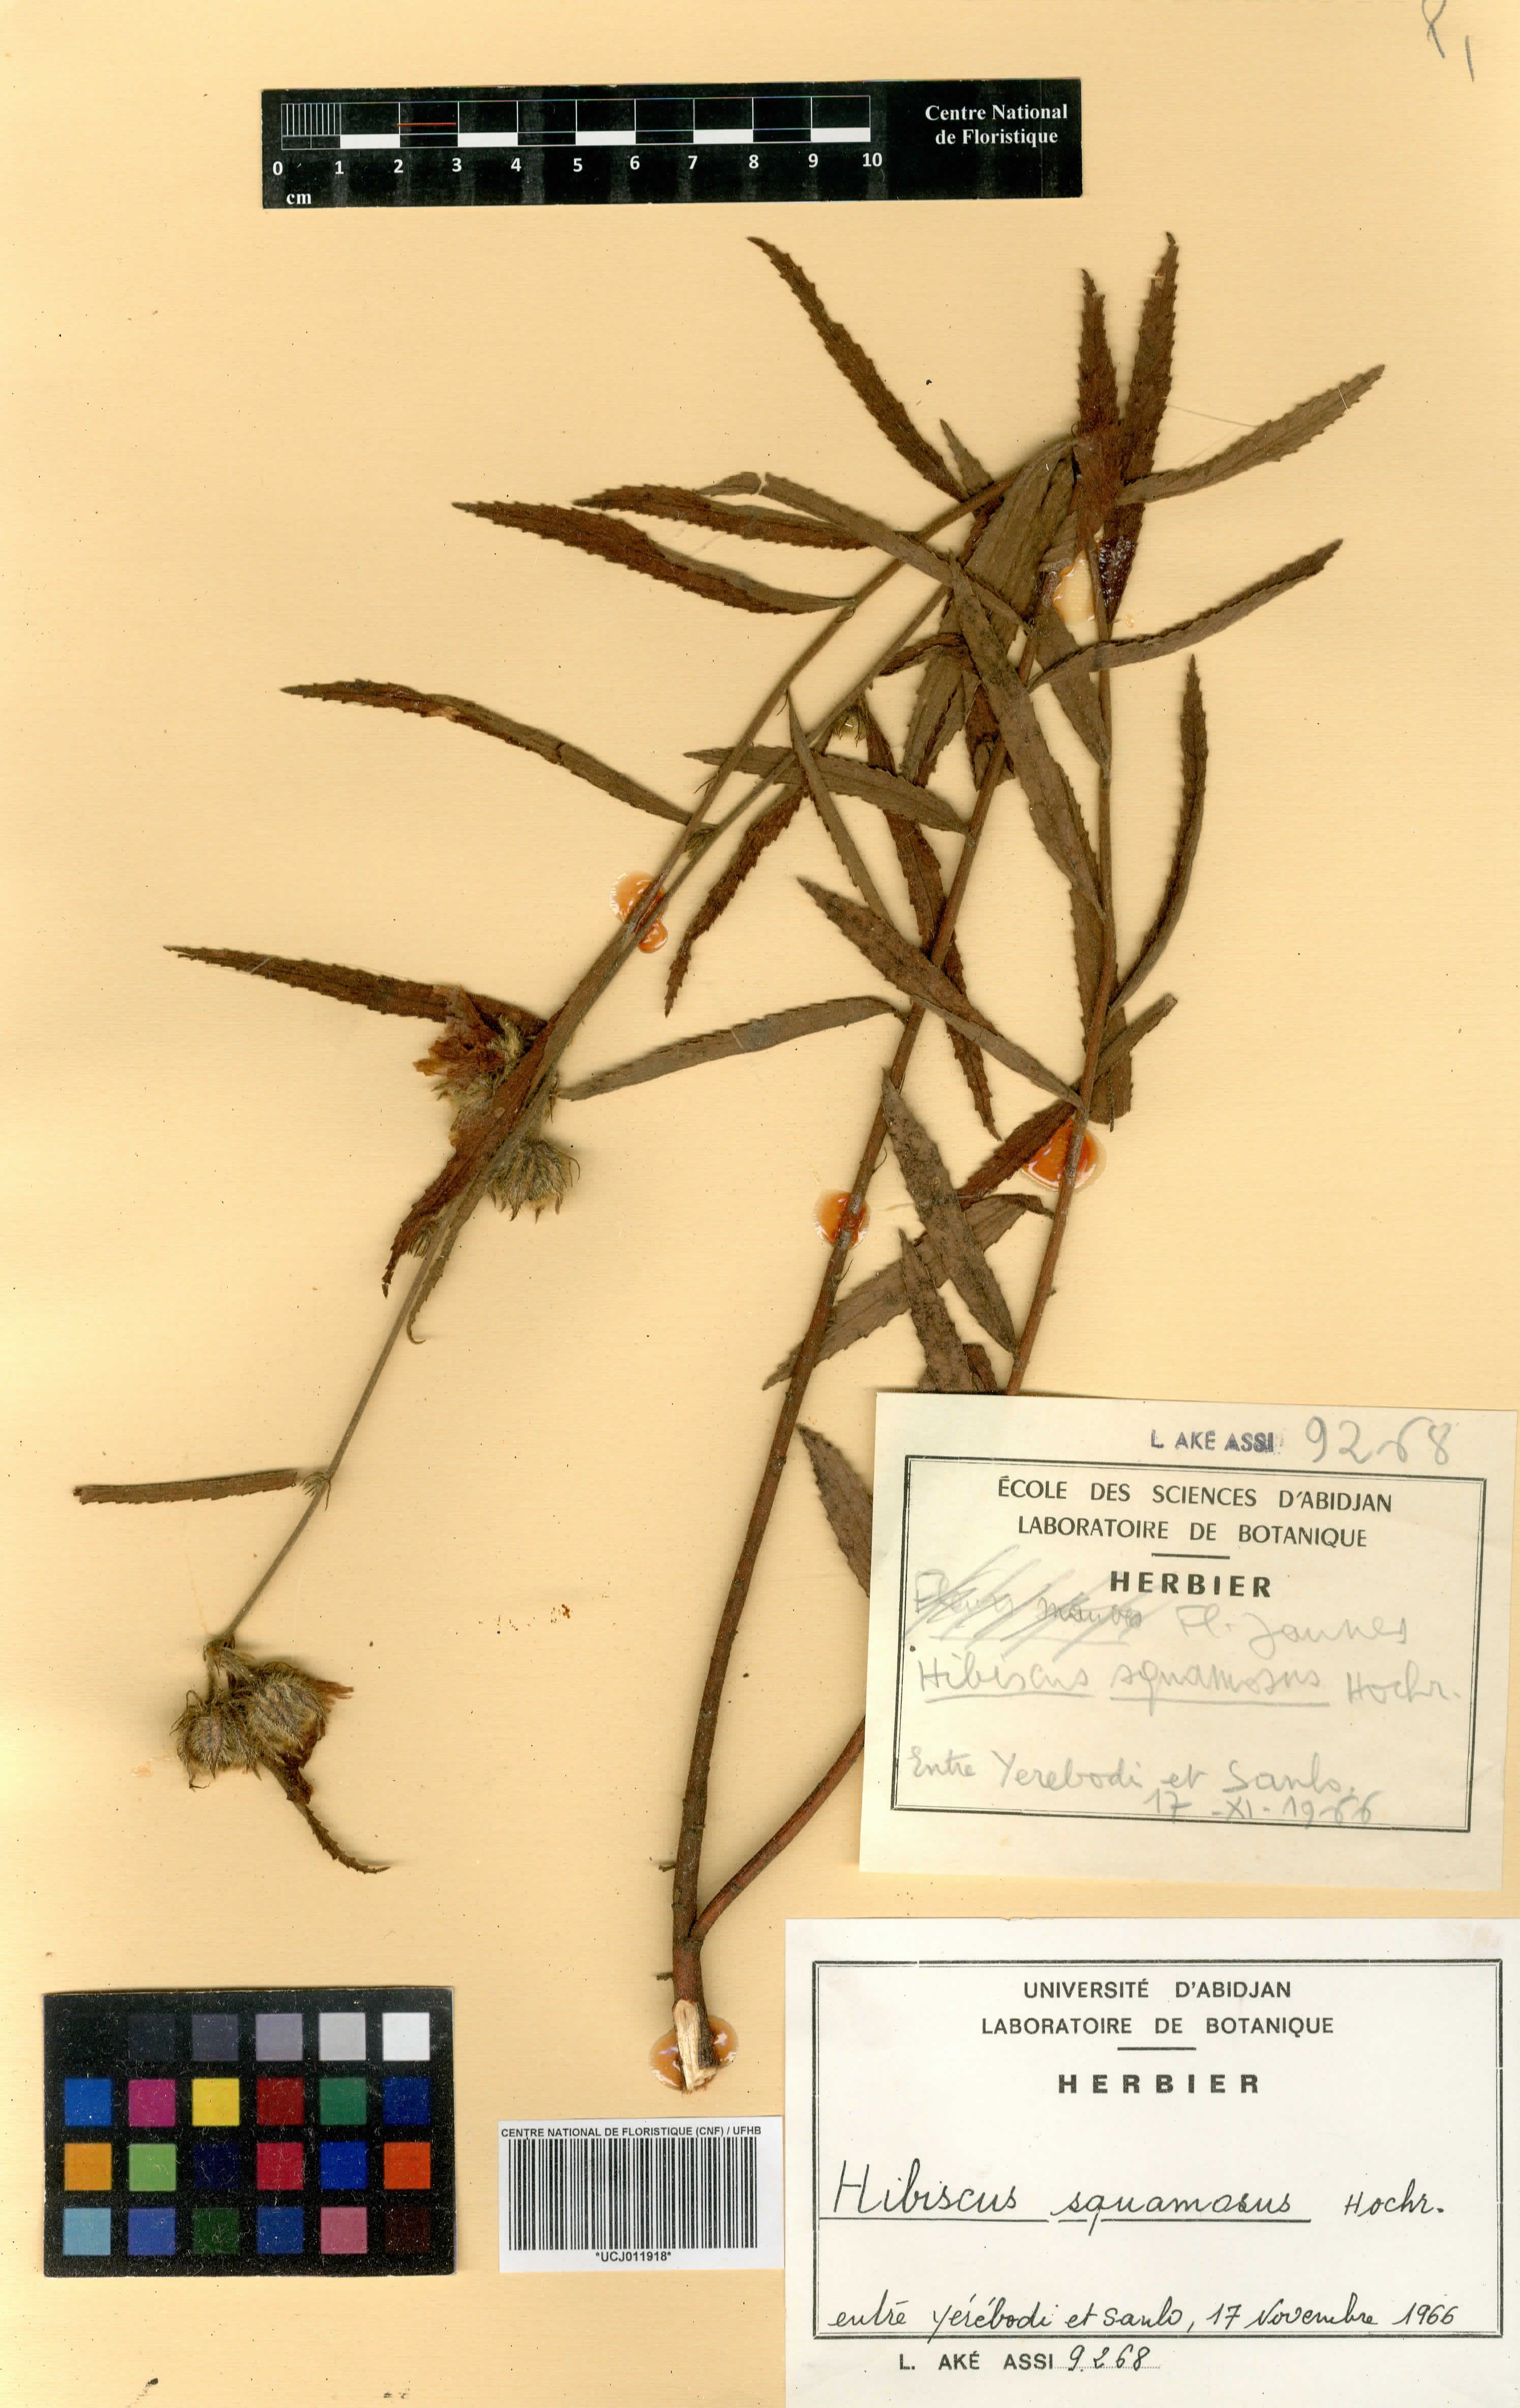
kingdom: Plantae
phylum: Tracheophyta
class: Magnoliopsida
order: Malvales
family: Malvaceae
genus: Hibiscus
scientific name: Hibiscus squamosus
